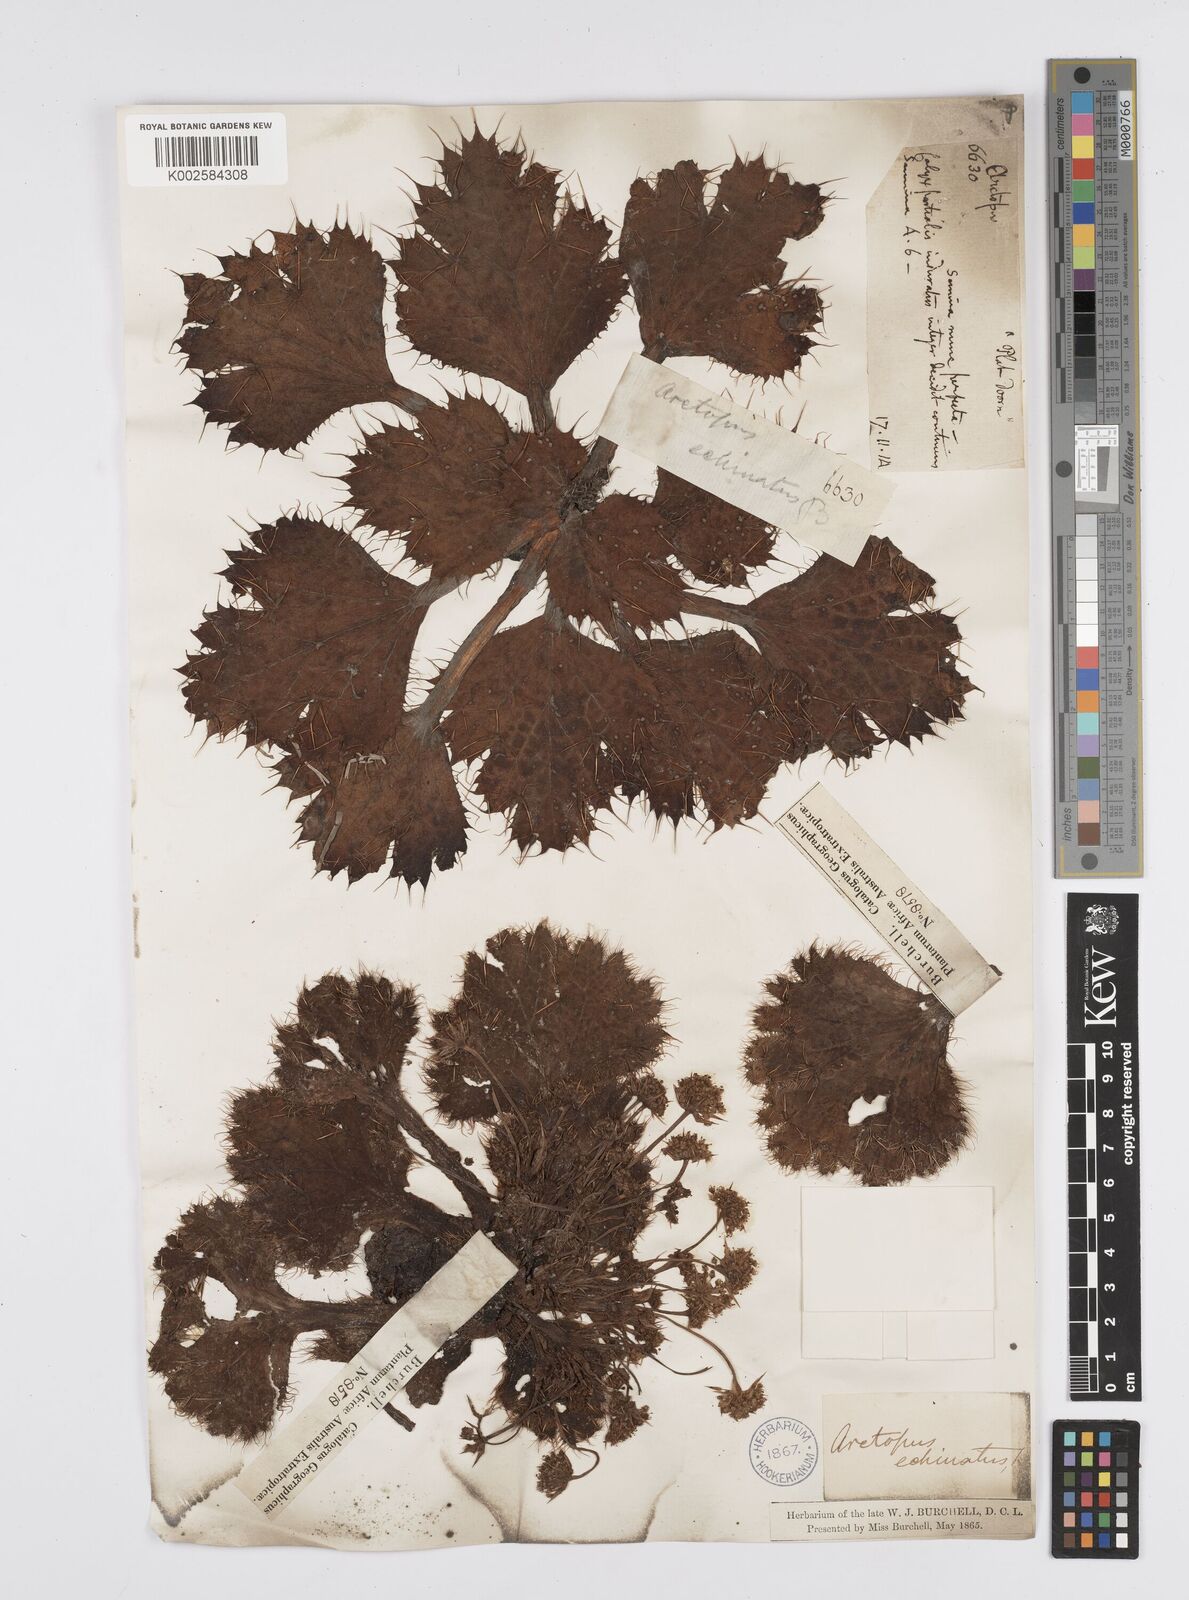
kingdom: Plantae
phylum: Tracheophyta
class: Magnoliopsida
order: Apiales
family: Apiaceae
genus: Arctopus
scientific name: Arctopus echinatus
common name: Platdoring
